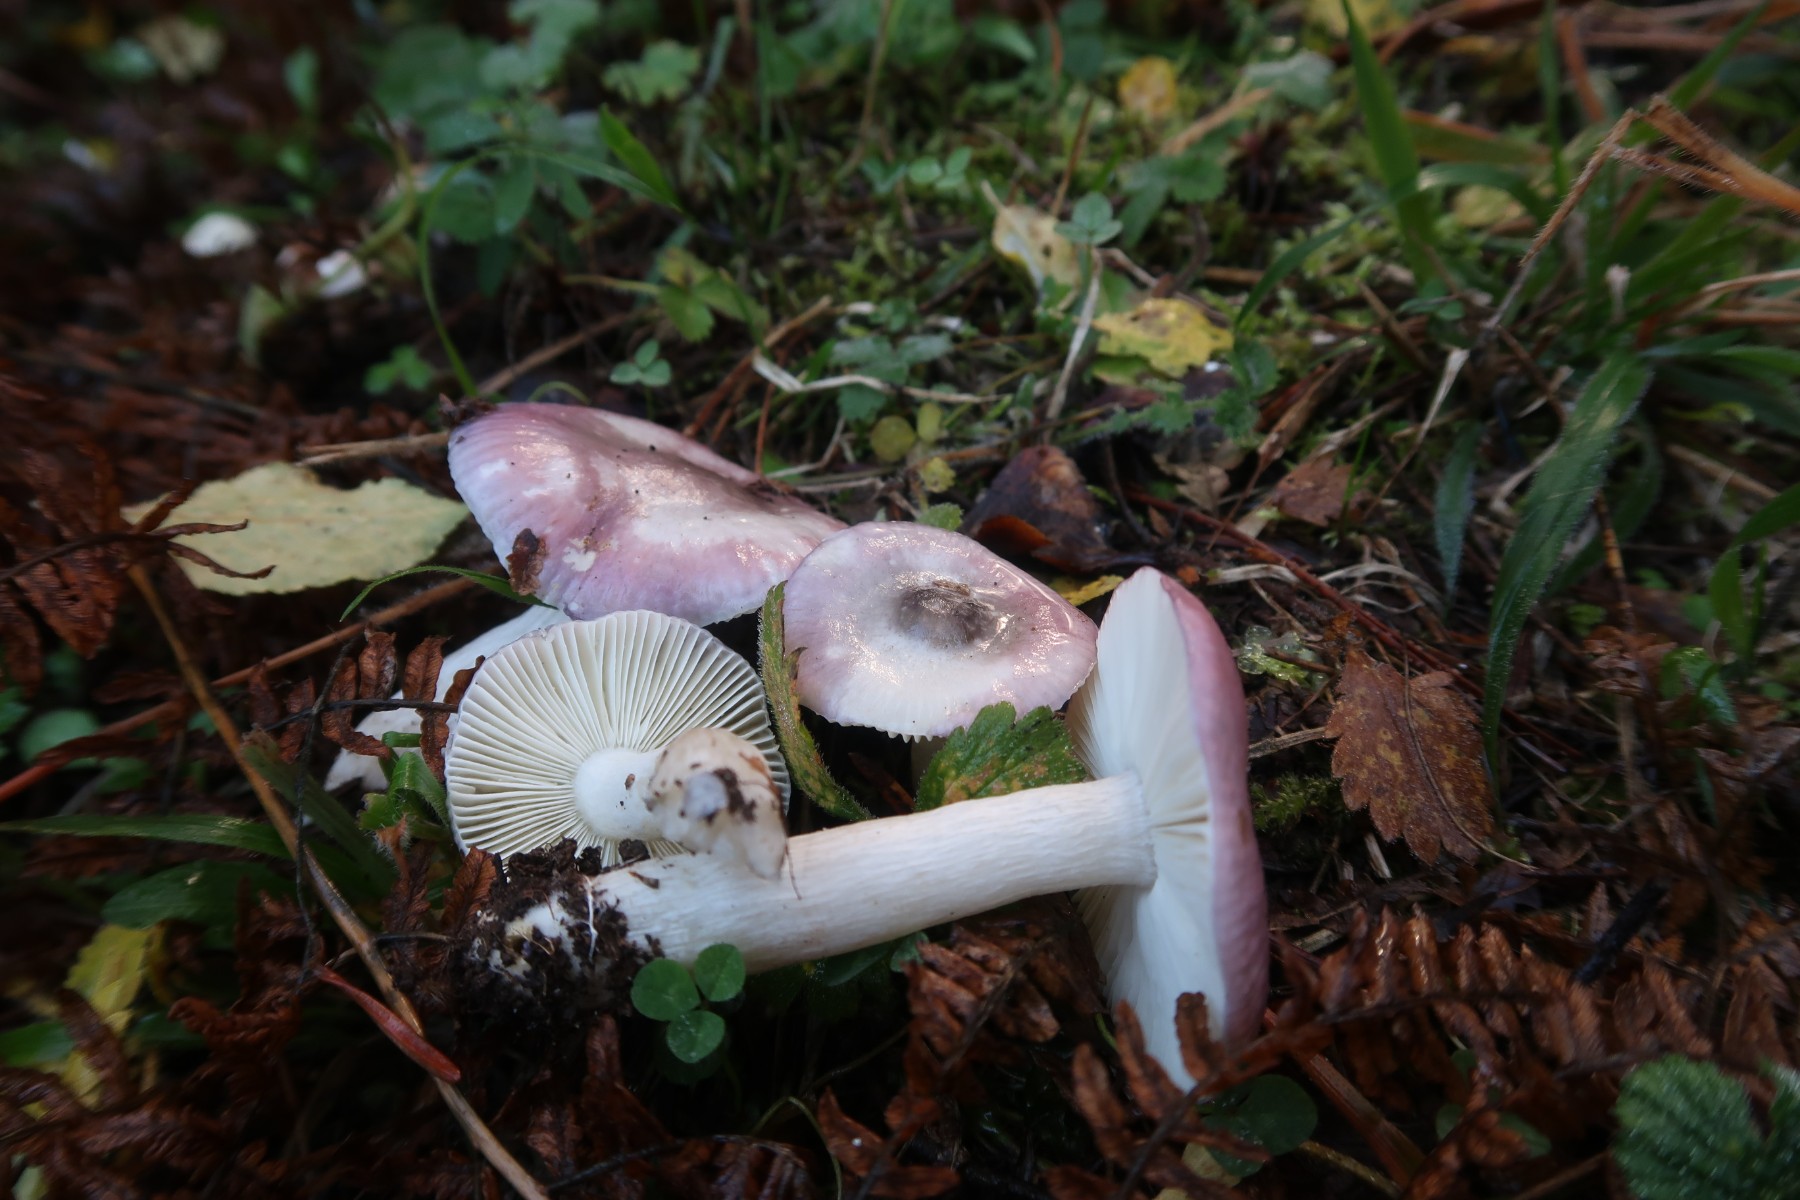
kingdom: Fungi
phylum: Basidiomycota
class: Agaricomycetes
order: Russulales
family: Russulaceae
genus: Russula
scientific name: Russula pelargonia
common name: pelargonie-skørhat
